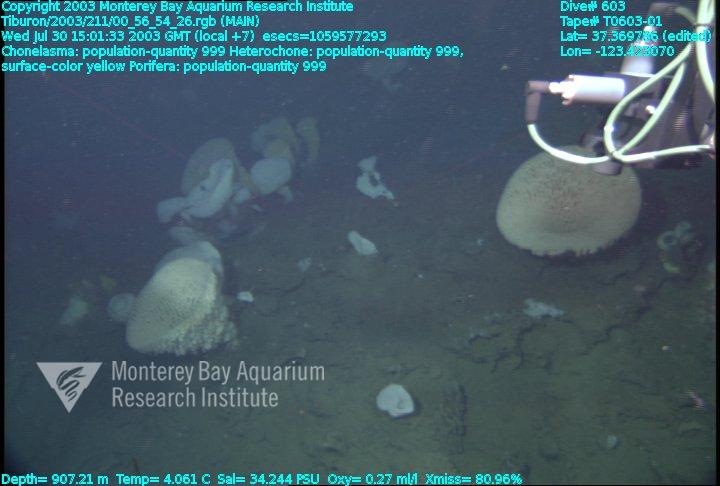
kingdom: Animalia
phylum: Porifera
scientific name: Porifera
